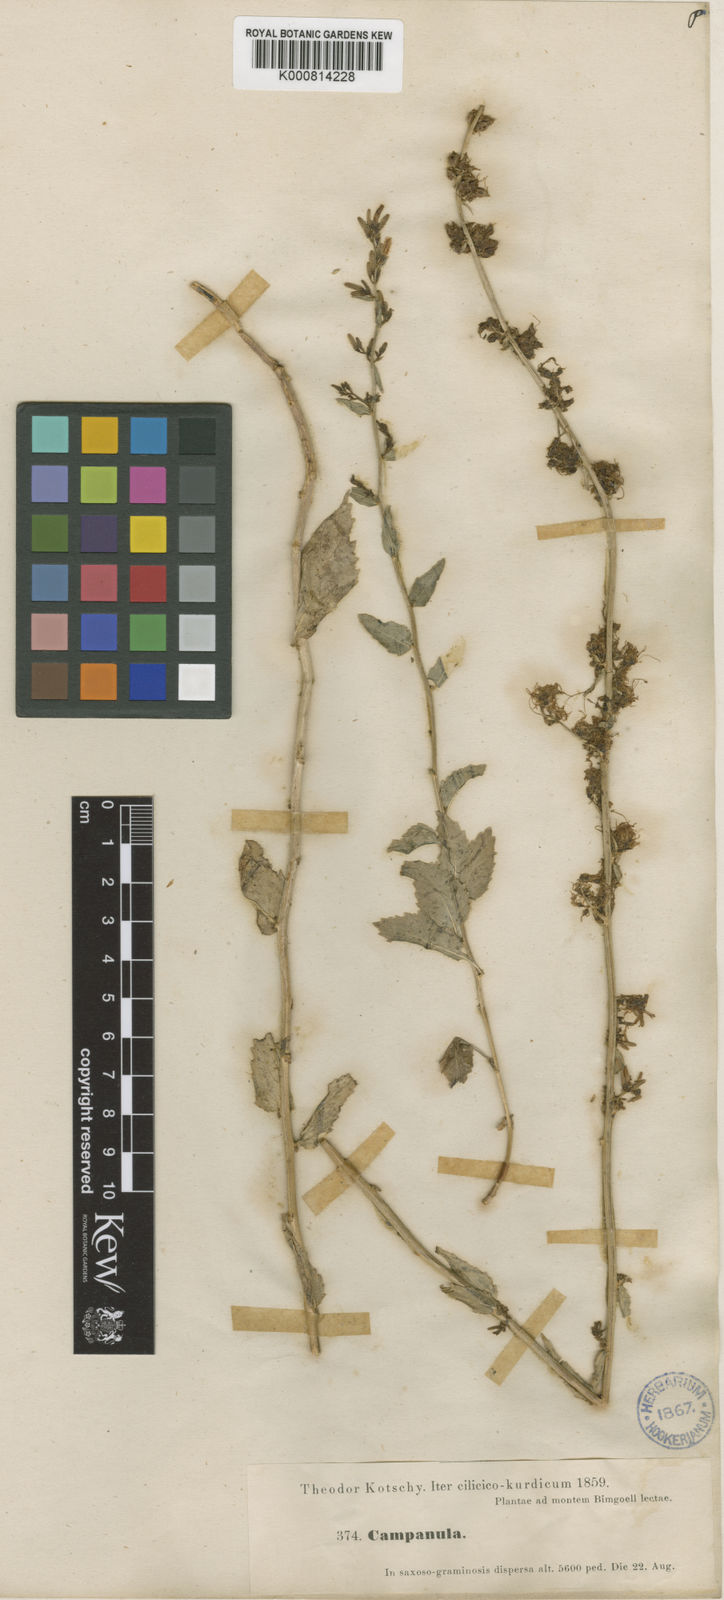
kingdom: Plantae
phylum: Tracheophyta
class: Magnoliopsida
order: Asterales
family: Campanulaceae
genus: Asyneuma
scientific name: Asyneuma amplexicaule
